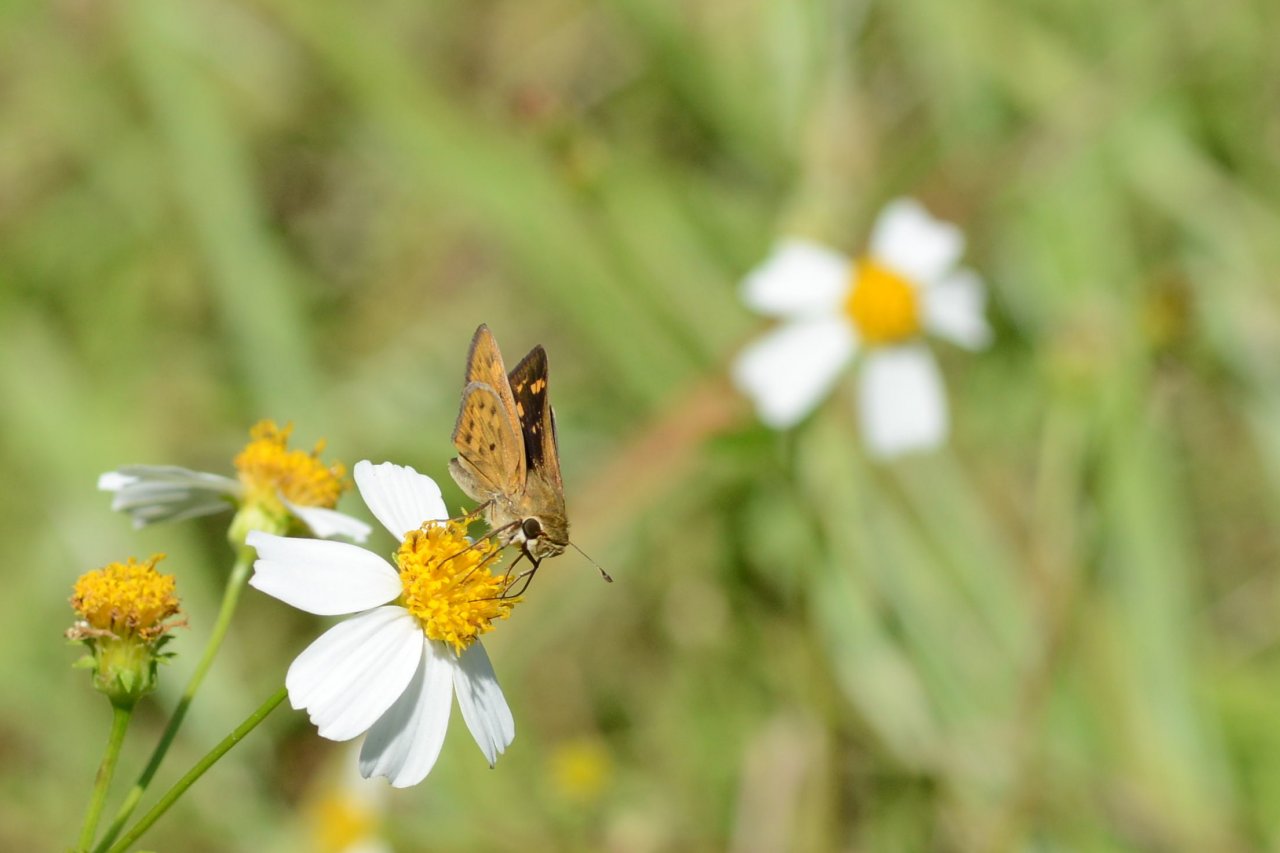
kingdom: Animalia
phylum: Arthropoda
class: Insecta
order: Lepidoptera
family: Hesperiidae
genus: Hylephila
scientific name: Hylephila phyleus
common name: Fiery Skipper
